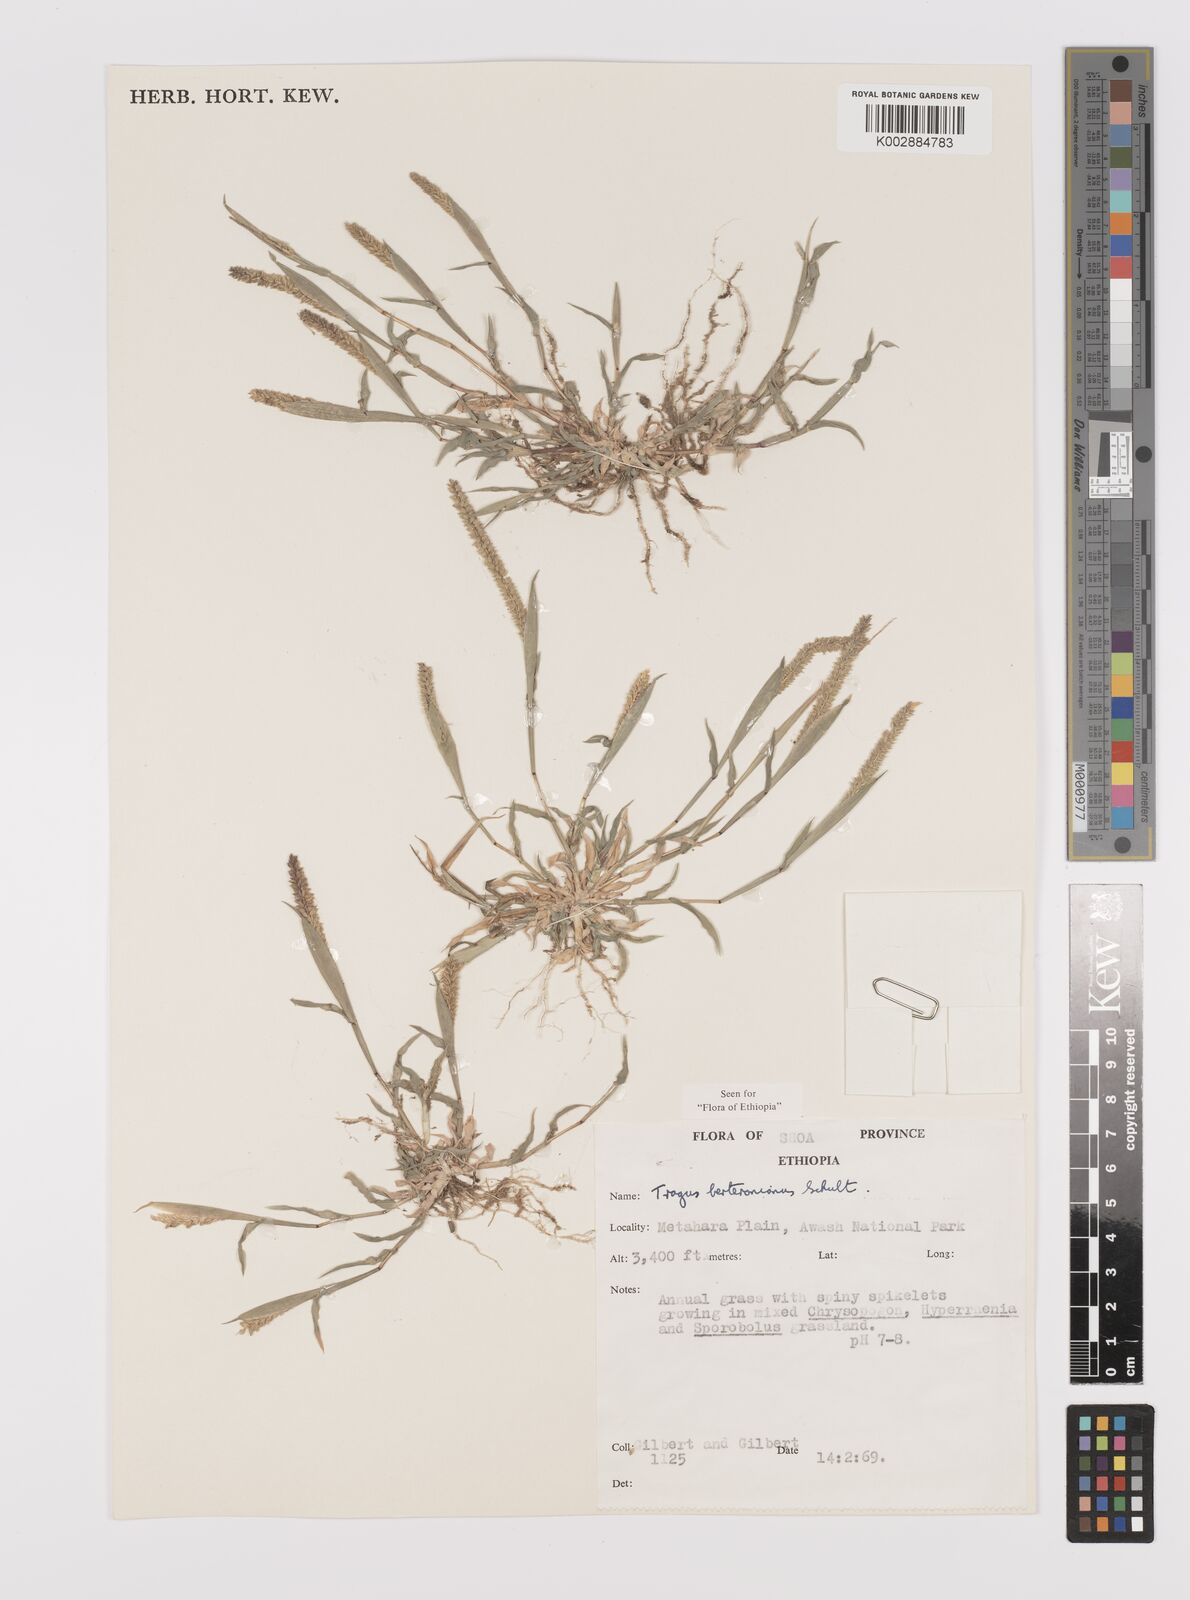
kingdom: Plantae
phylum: Tracheophyta
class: Liliopsida
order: Poales
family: Poaceae
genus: Tragus
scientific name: Tragus berteronianus
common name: African bur-grass
